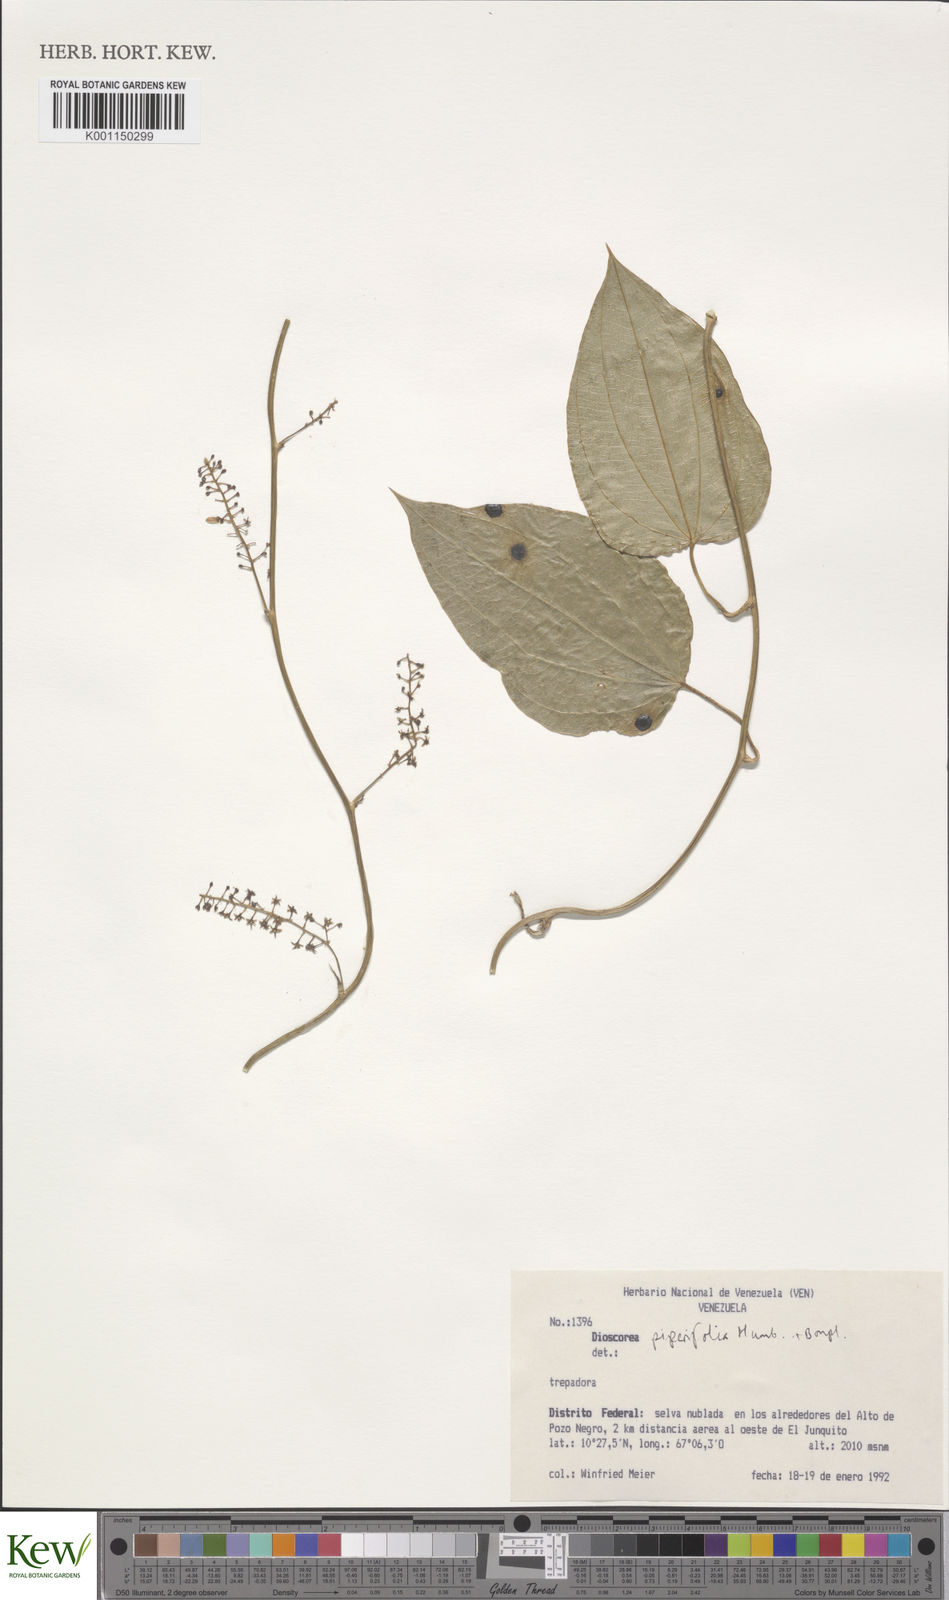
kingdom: Plantae
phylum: Tracheophyta
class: Liliopsida
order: Dioscoreales
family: Dioscoreaceae
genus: Dioscorea
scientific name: Dioscorea piperifolia
